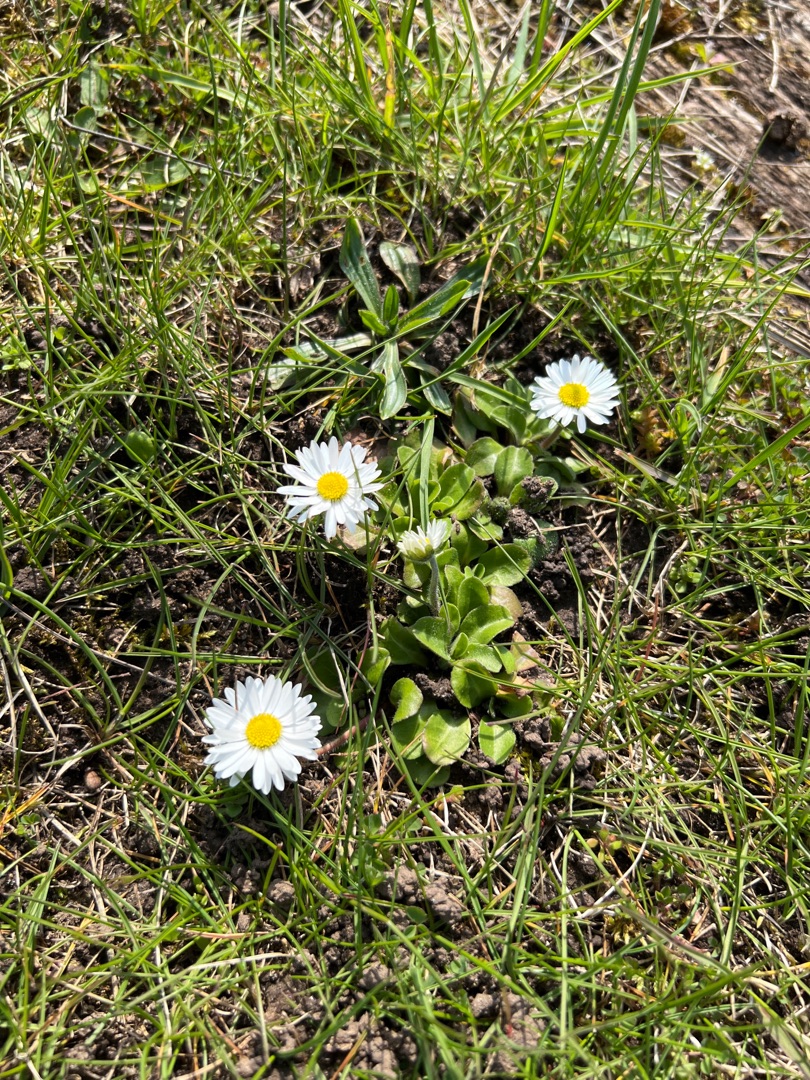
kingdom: Plantae
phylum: Tracheophyta
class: Magnoliopsida
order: Asterales
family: Asteraceae
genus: Bellis
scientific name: Bellis perennis
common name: Tusindfryd
